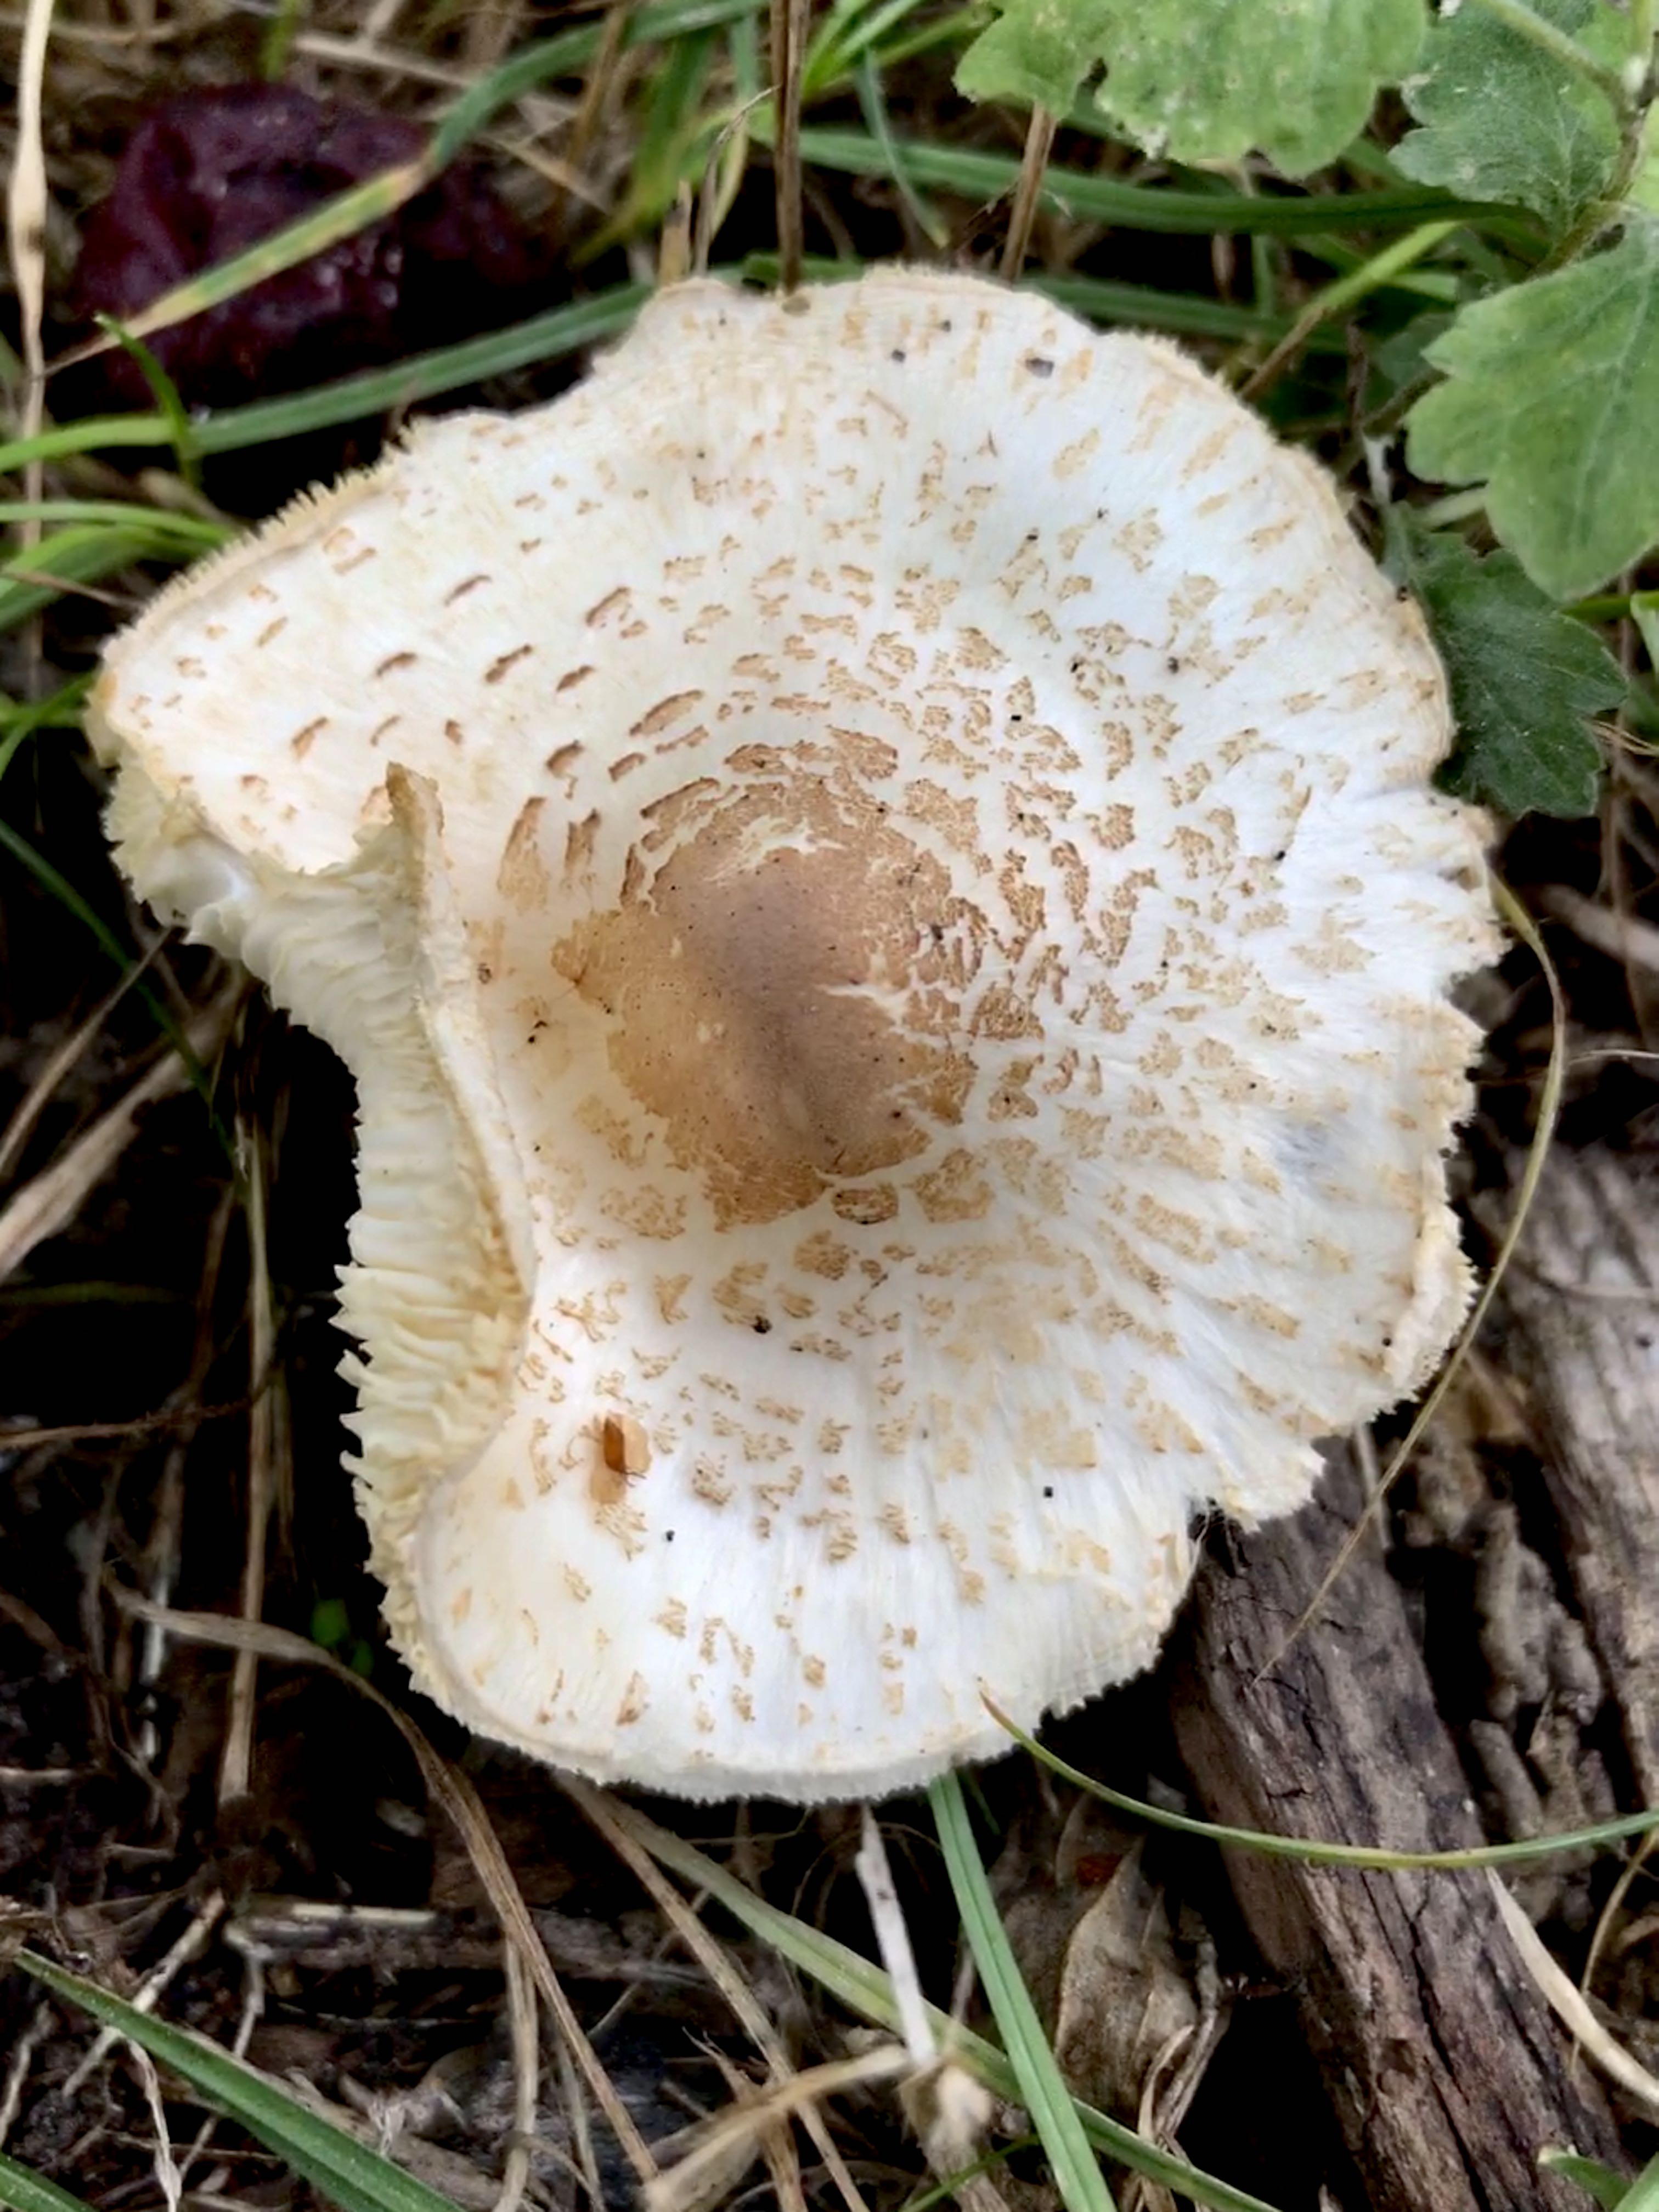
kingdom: Fungi
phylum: Basidiomycota
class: Agaricomycetes
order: Agaricales
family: Agaricaceae
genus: Lepiota
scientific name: Lepiota cristata
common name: stinkende parasolhat
